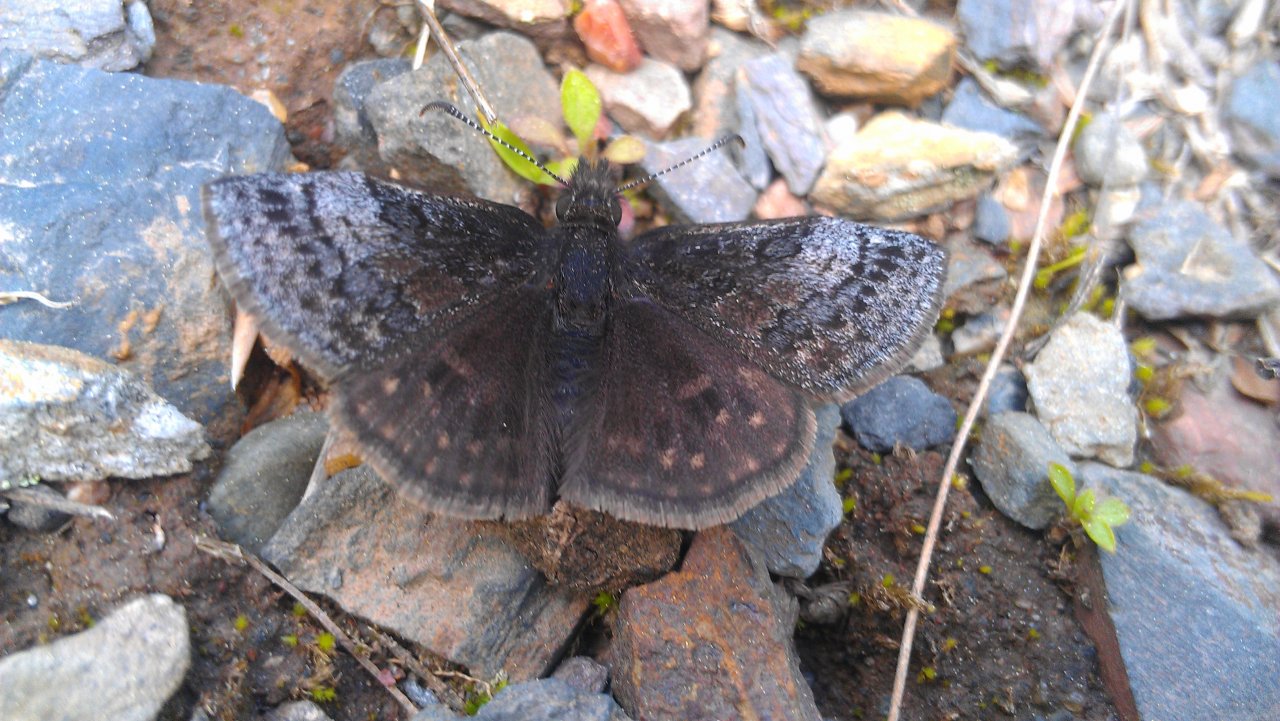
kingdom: Animalia
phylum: Arthropoda
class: Insecta
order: Lepidoptera
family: Hesperiidae
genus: Erynnis
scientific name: Erynnis icelus
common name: Dreamy Duskywing
